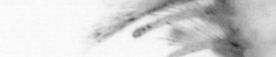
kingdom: Animalia
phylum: Annelida
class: Polychaeta
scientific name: Polychaeta
